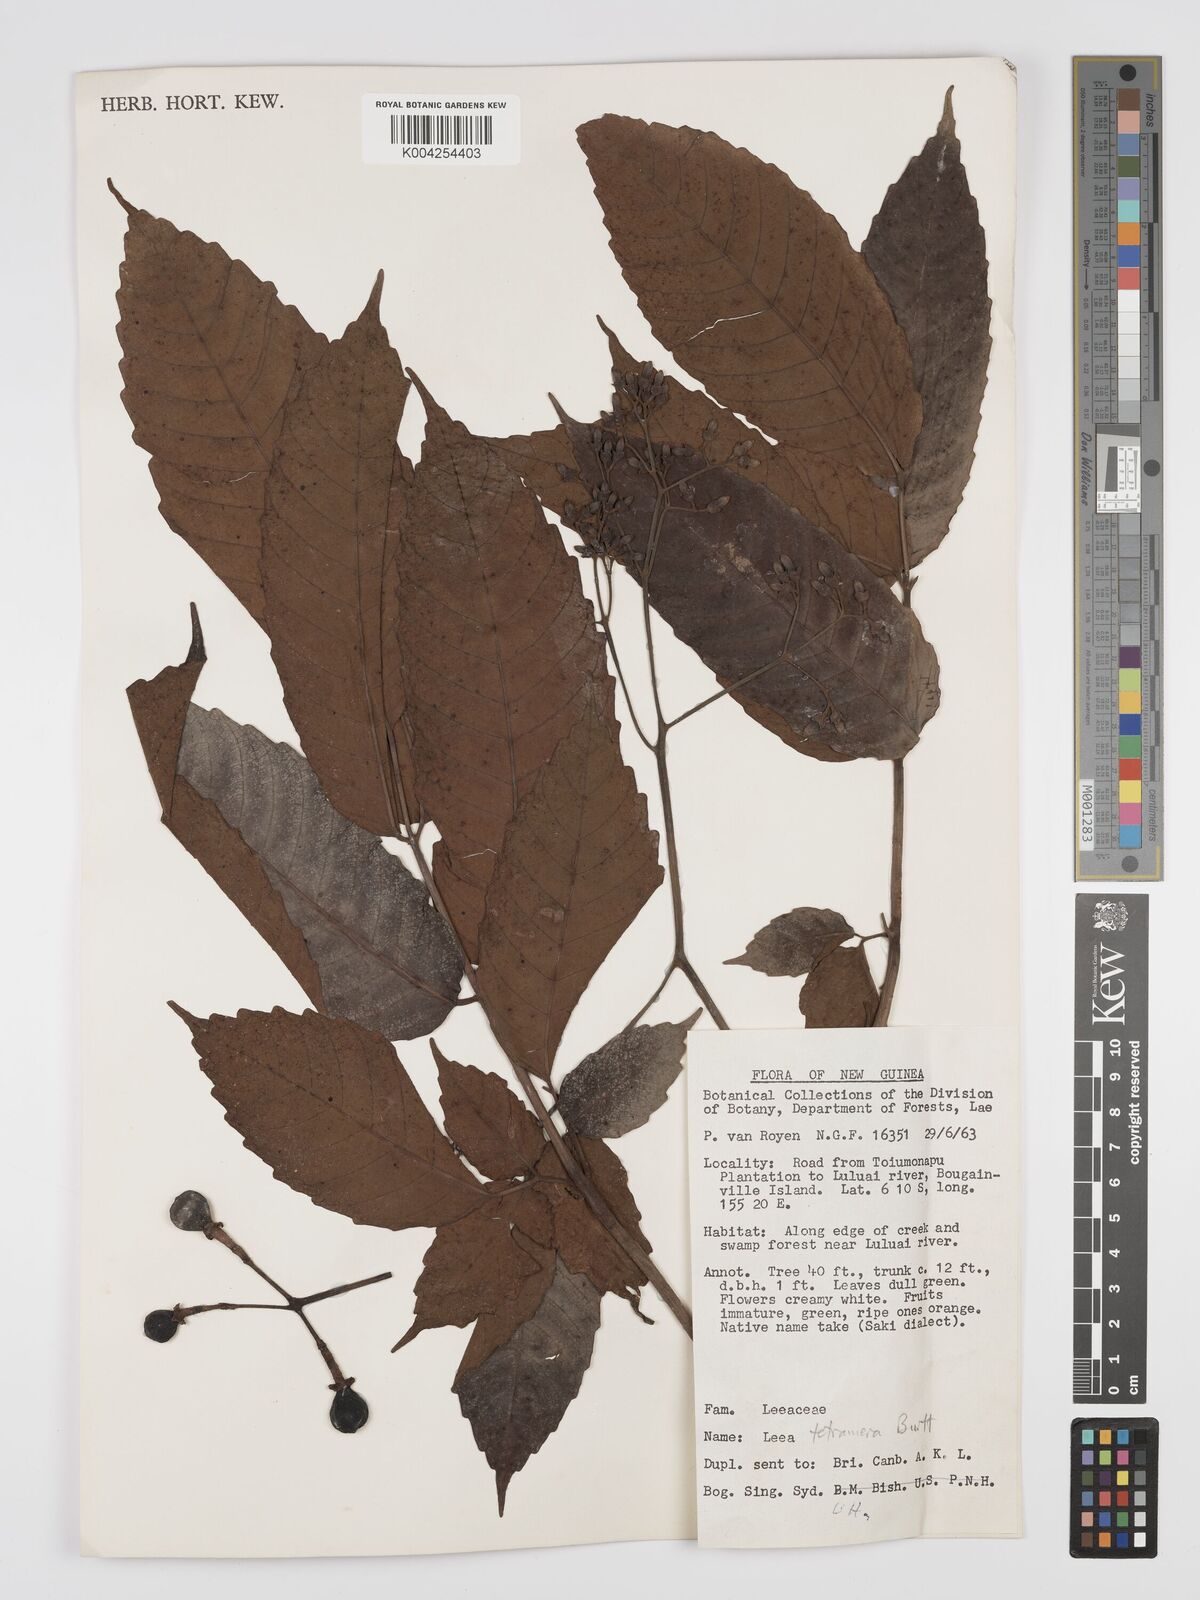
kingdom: Plantae
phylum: Tracheophyta
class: Magnoliopsida
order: Vitales
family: Vitaceae
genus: Leea
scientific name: Leea tetramera
